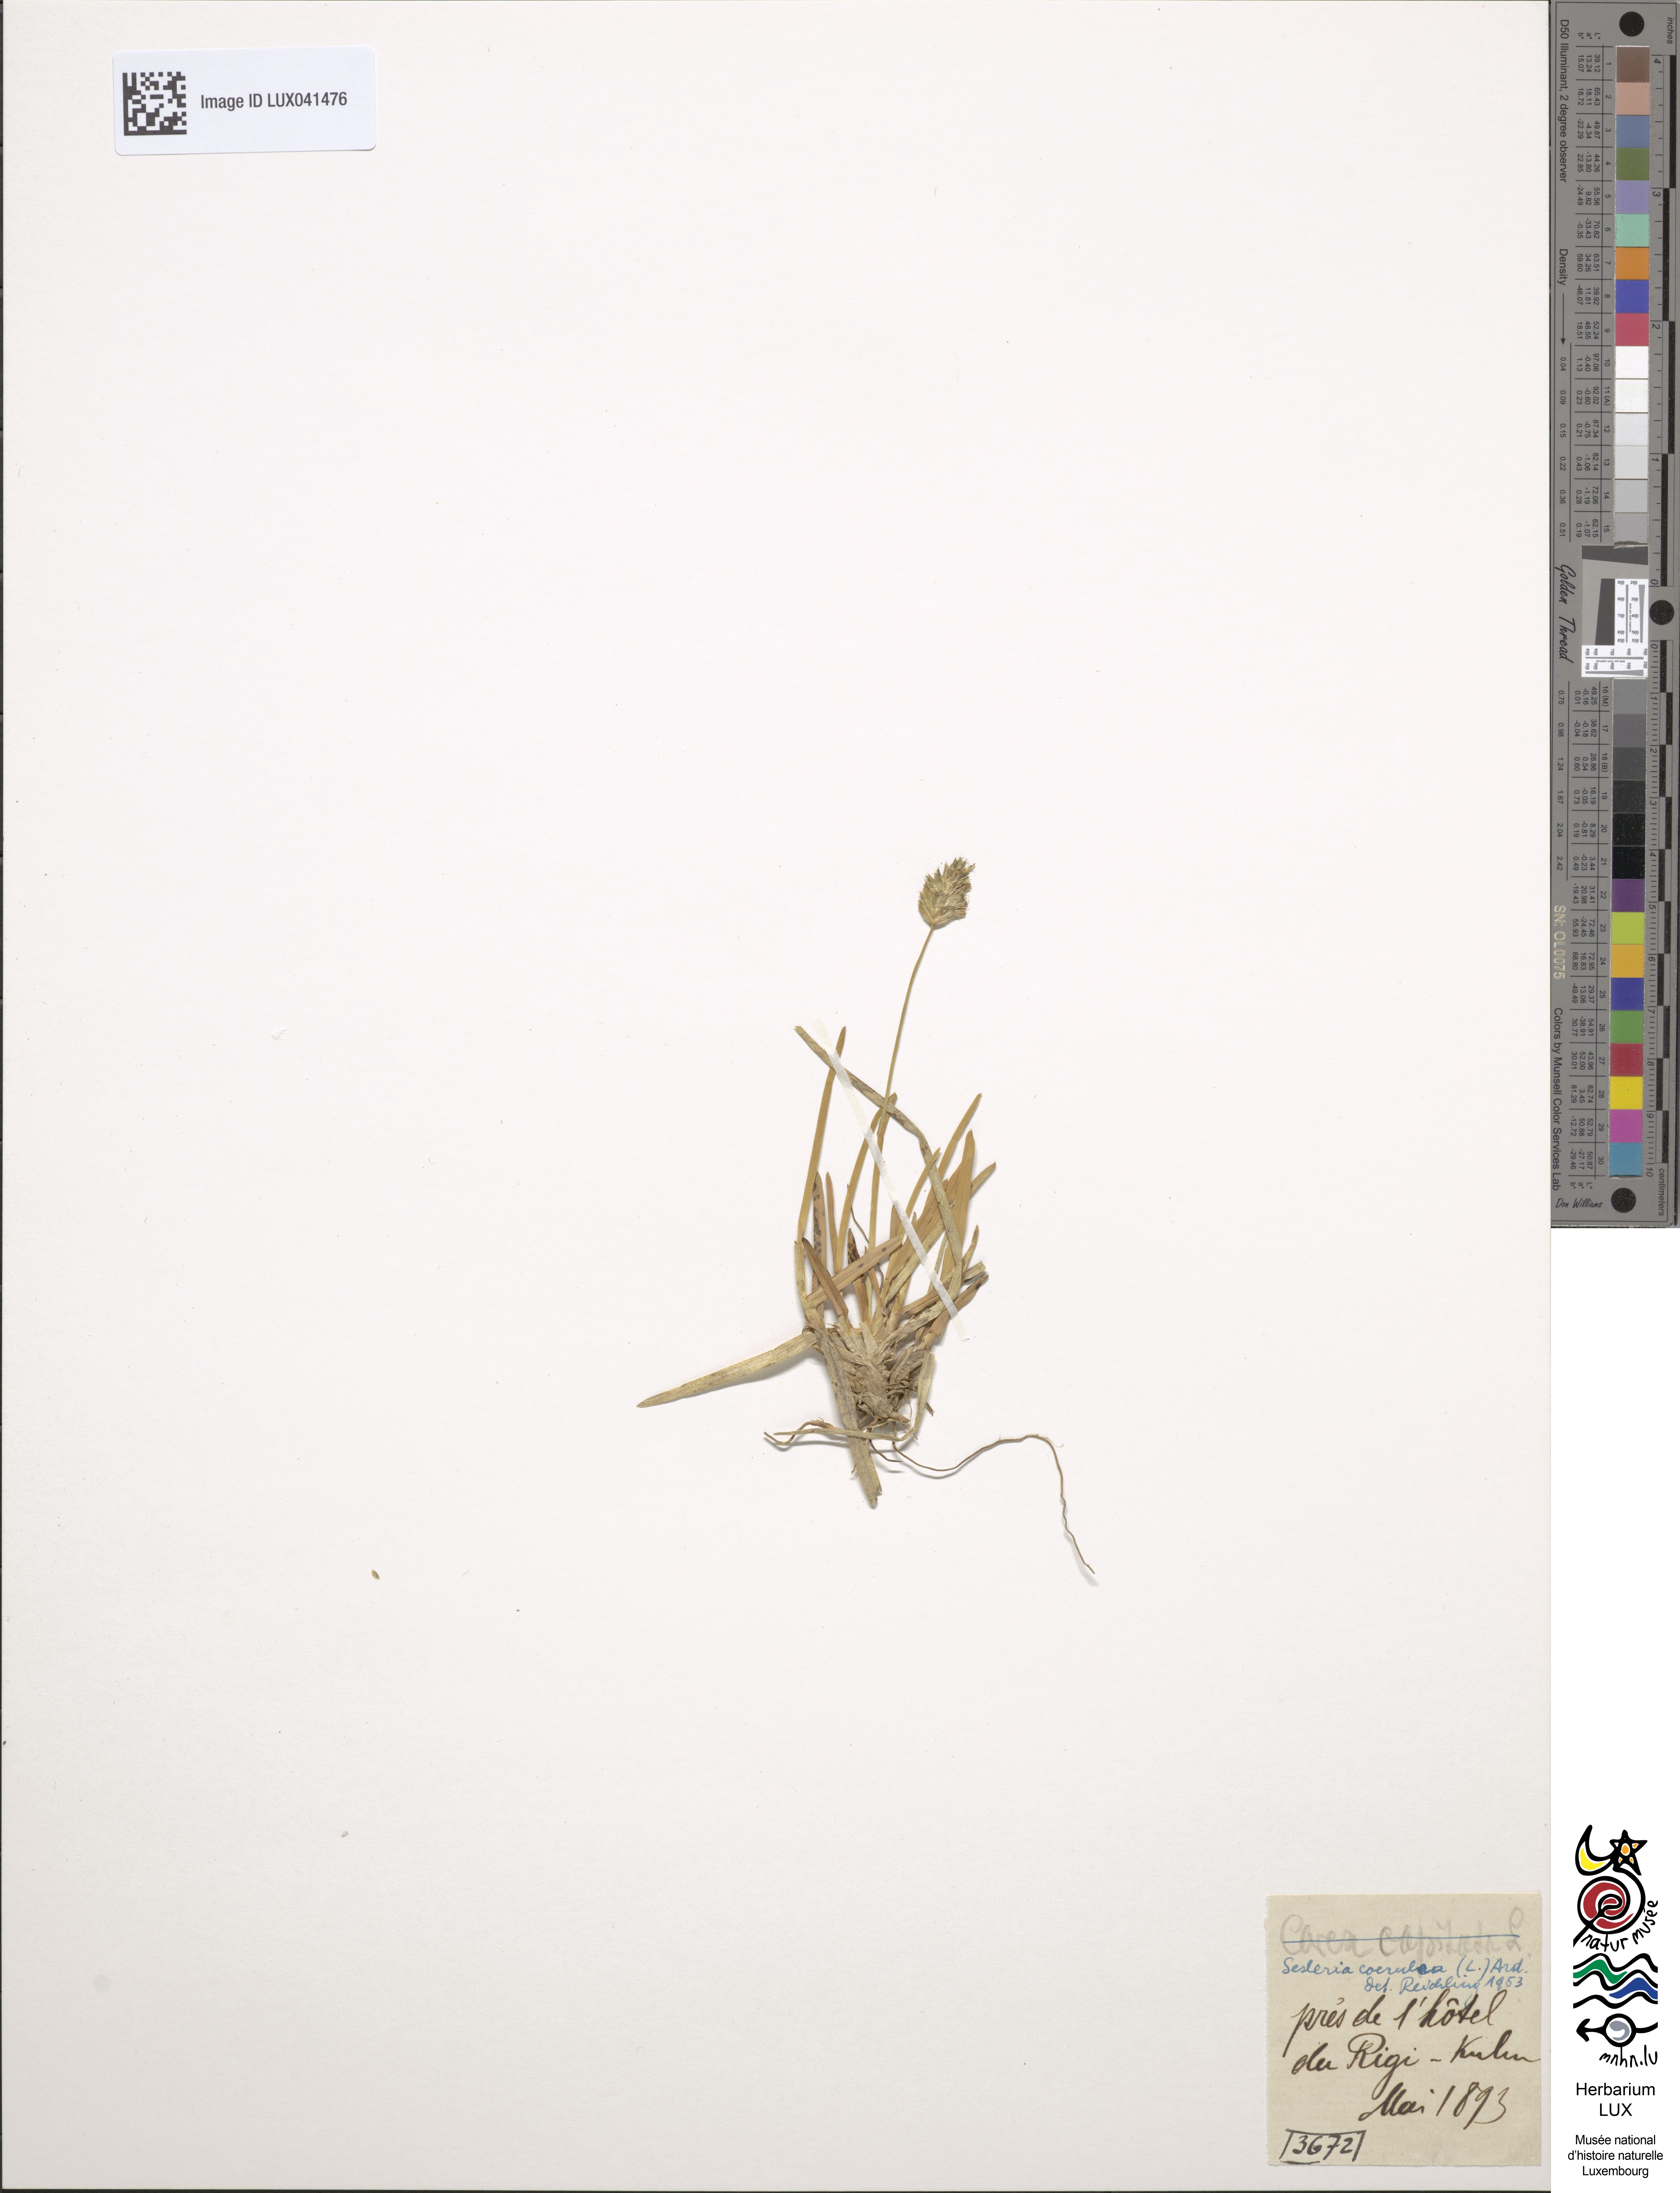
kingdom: Plantae
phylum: Tracheophyta
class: Liliopsida
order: Poales
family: Cyperaceae
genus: Carex
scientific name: Carex capitata
